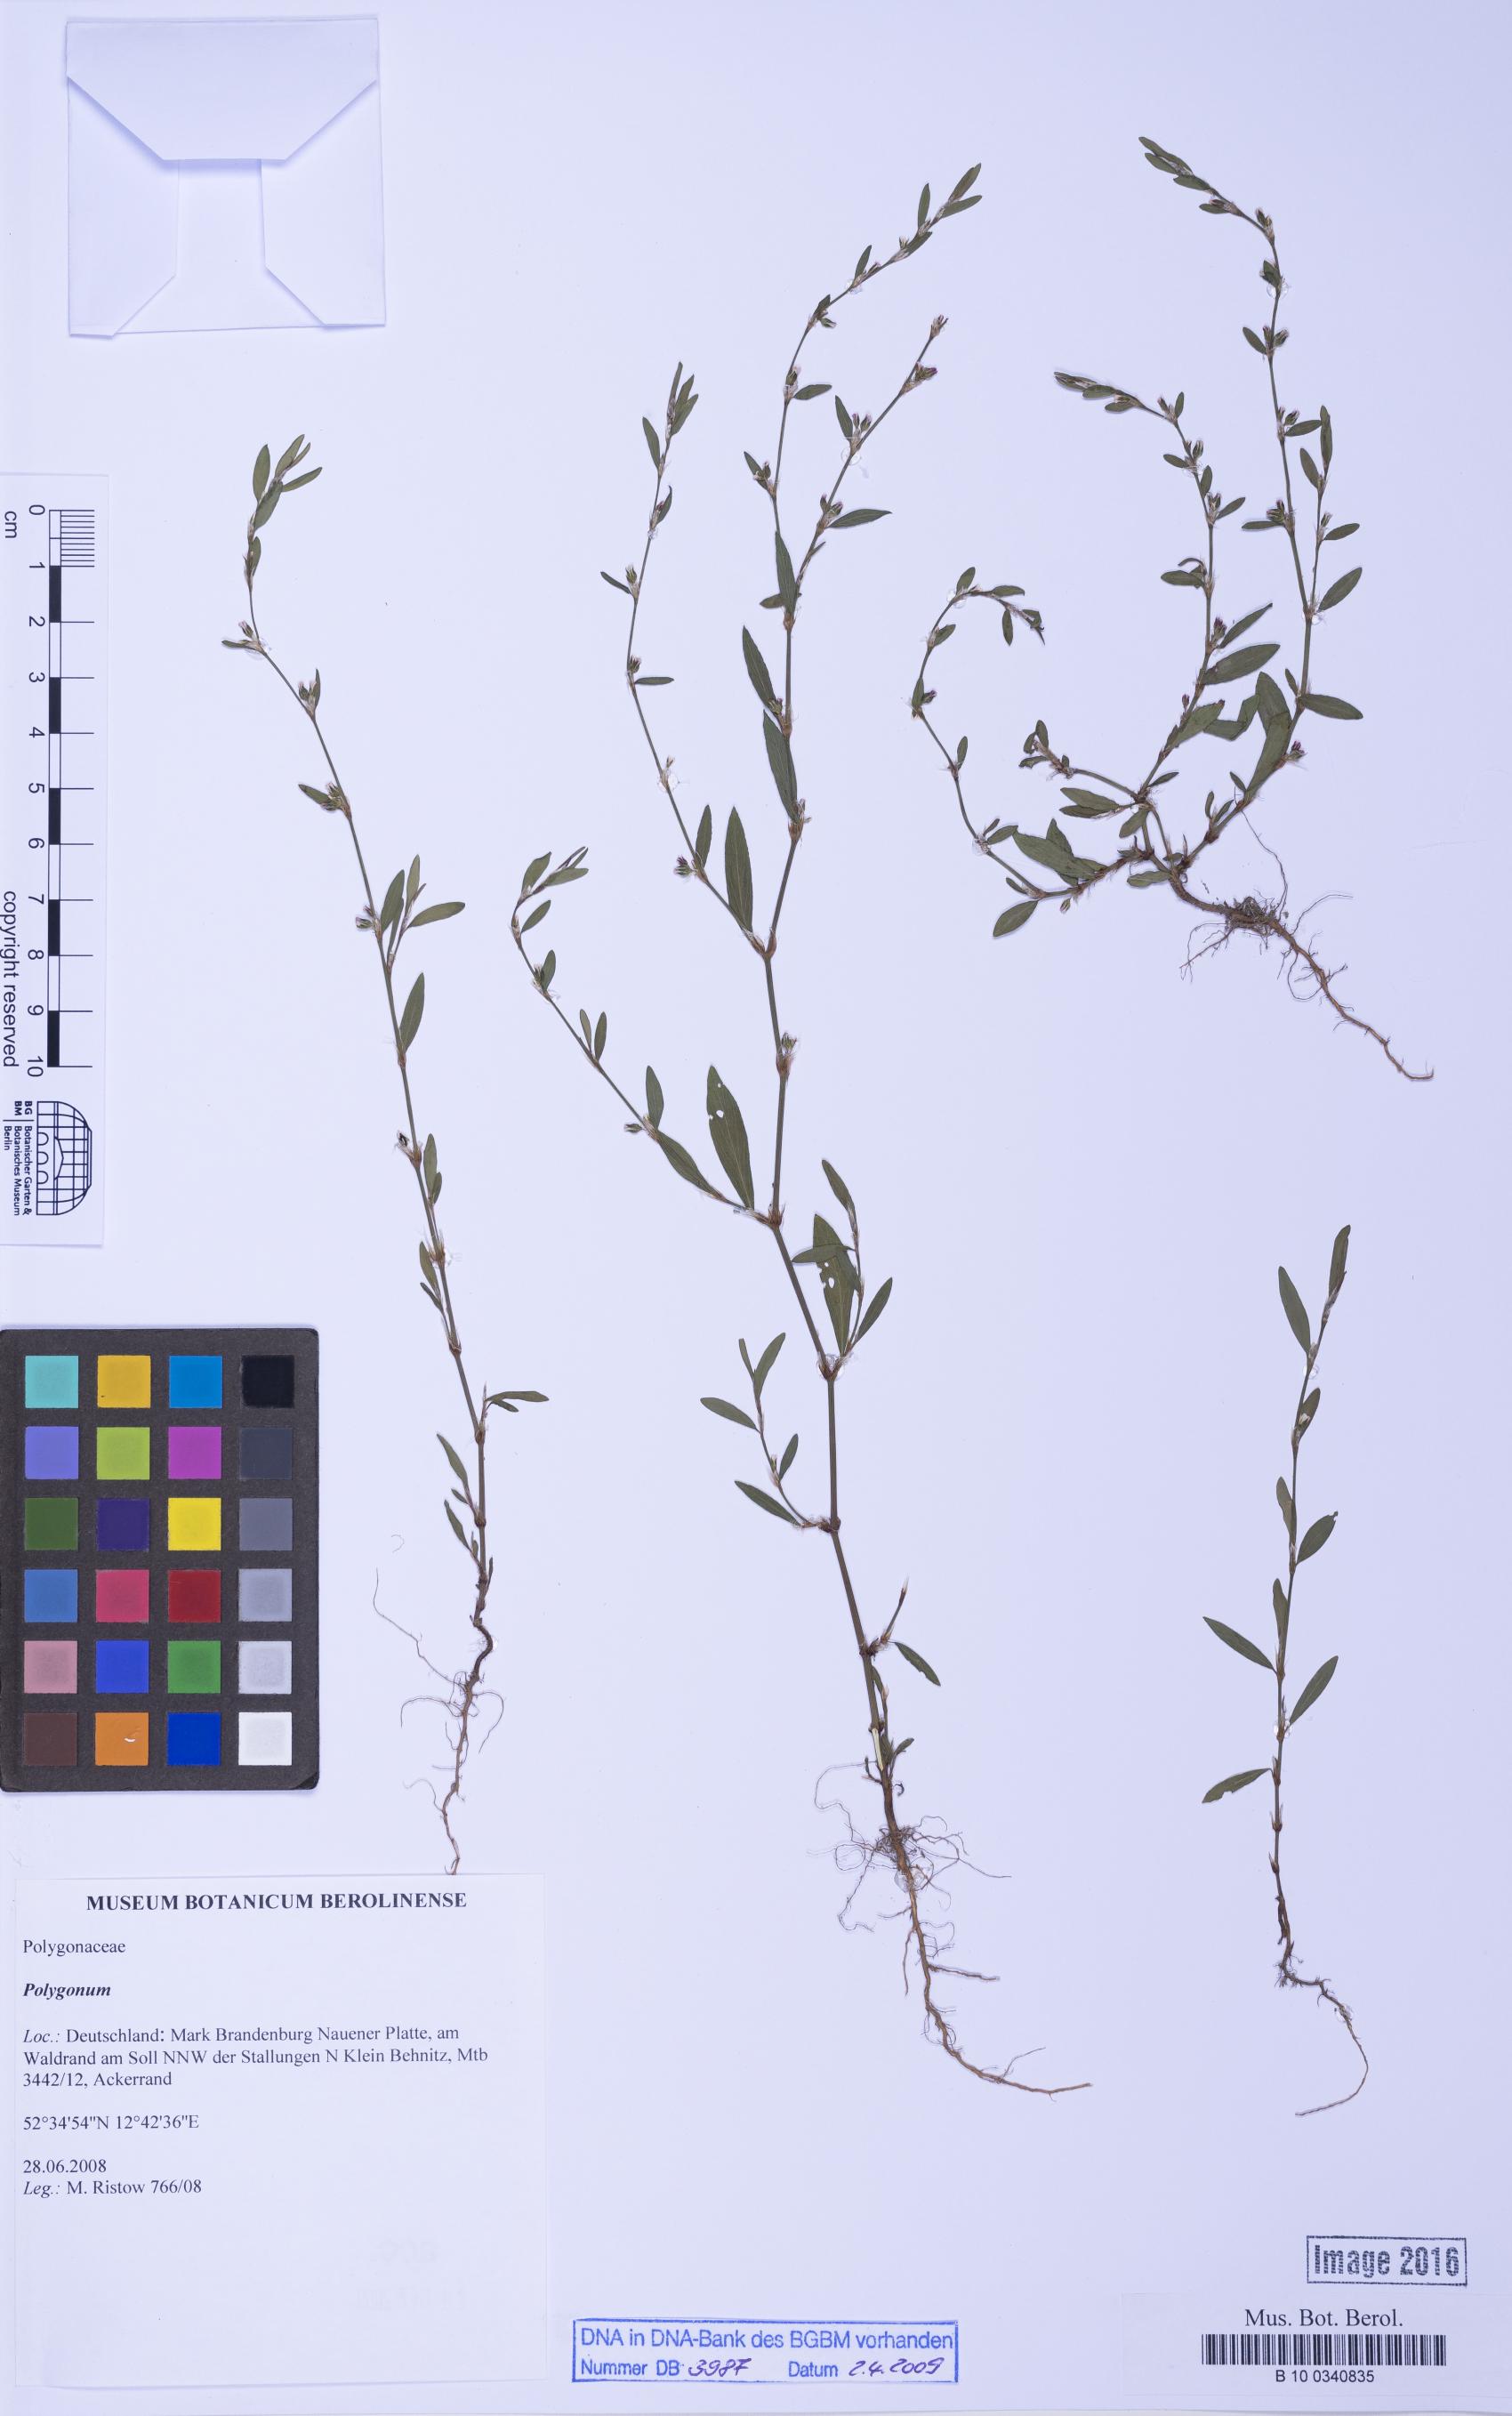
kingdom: Plantae
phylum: Tracheophyta
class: Magnoliopsida
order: Caryophyllales
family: Polygonaceae
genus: Polygonum
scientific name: Polygonum
